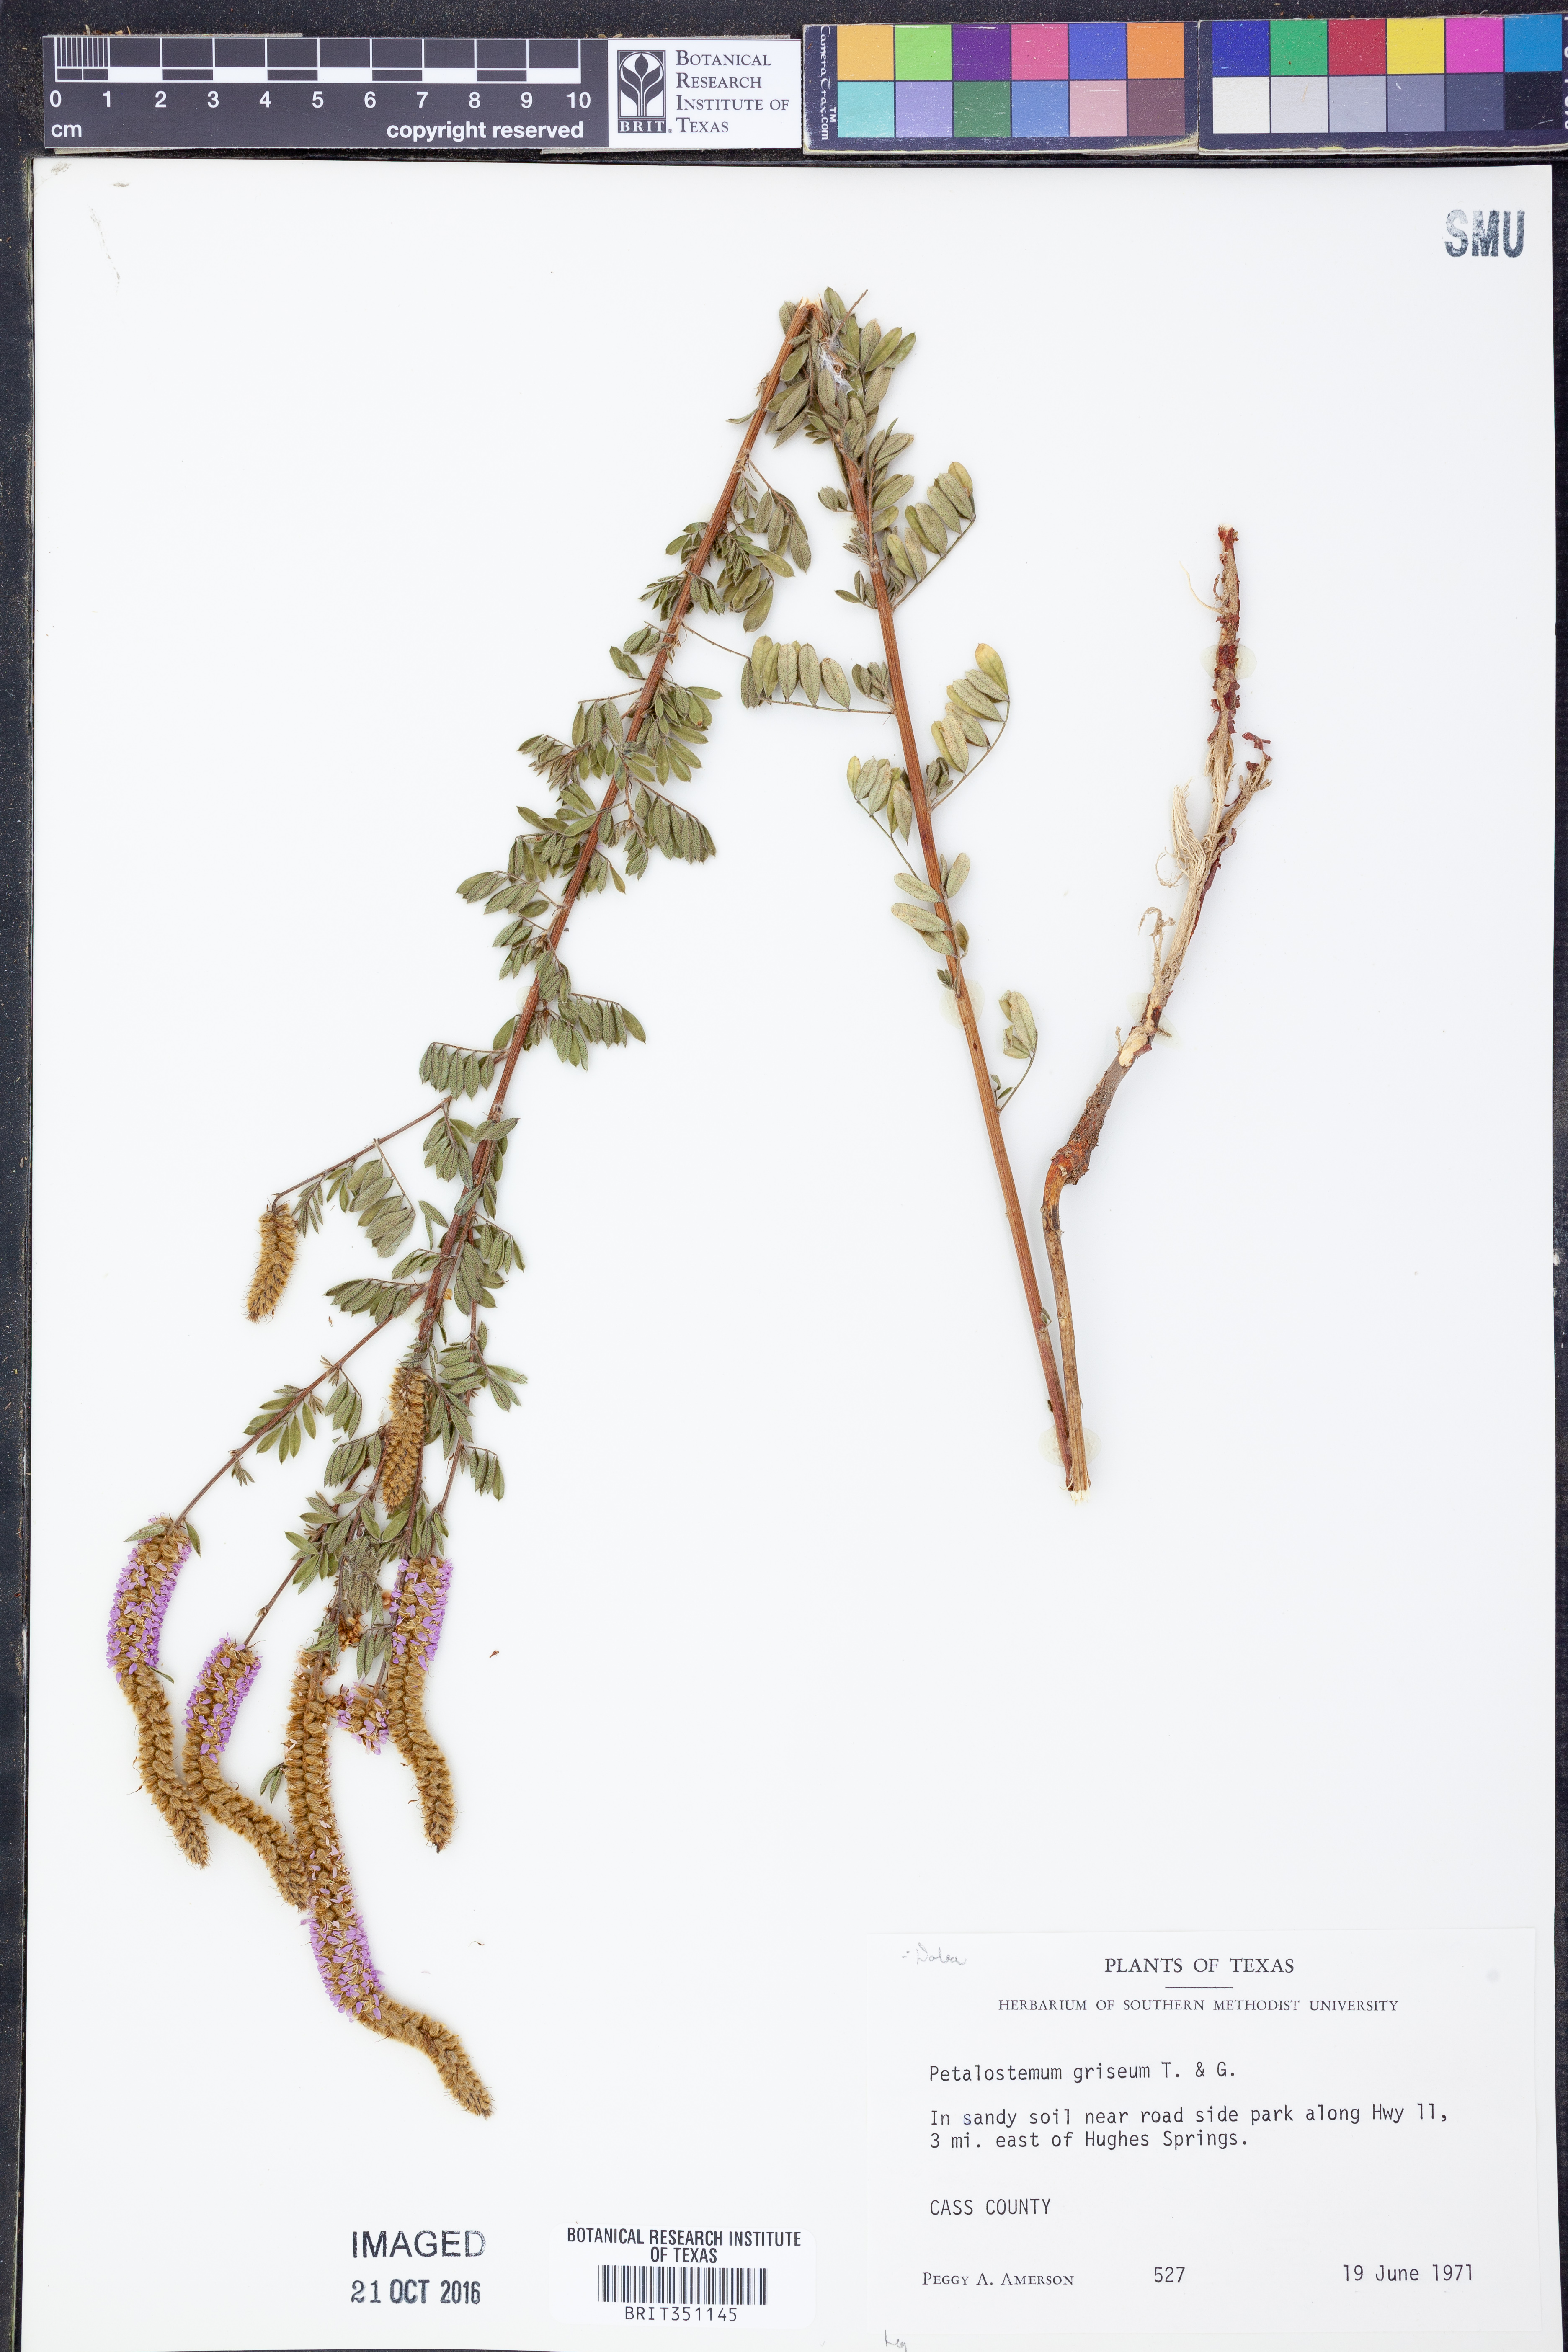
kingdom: Plantae
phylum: Tracheophyta
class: Magnoliopsida
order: Fabales
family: Fabaceae
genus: Dalea
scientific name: Dalea villosa
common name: Silky prairie-clover
